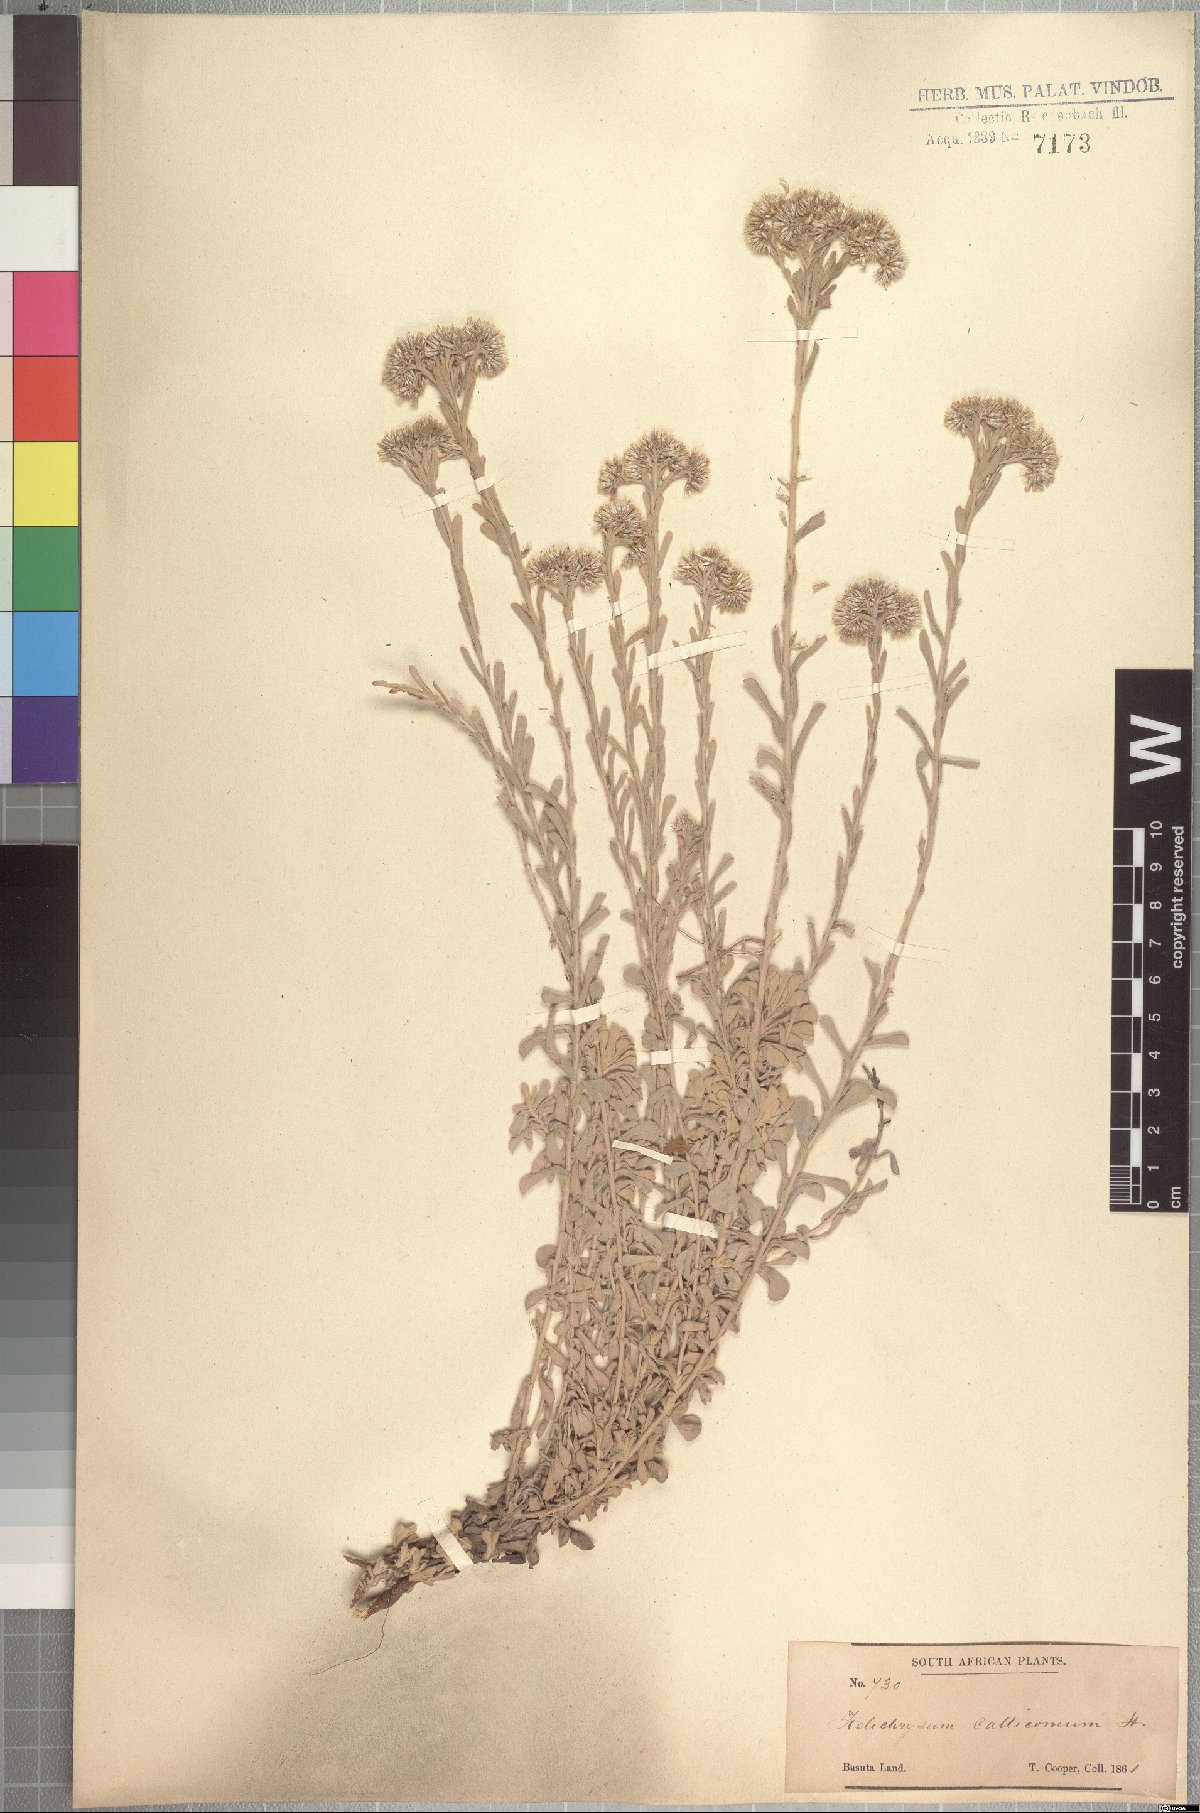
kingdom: Plantae
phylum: Tracheophyta
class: Magnoliopsida
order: Asterales
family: Asteraceae
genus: Helichrysum
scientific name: Helichrysum callicomum
